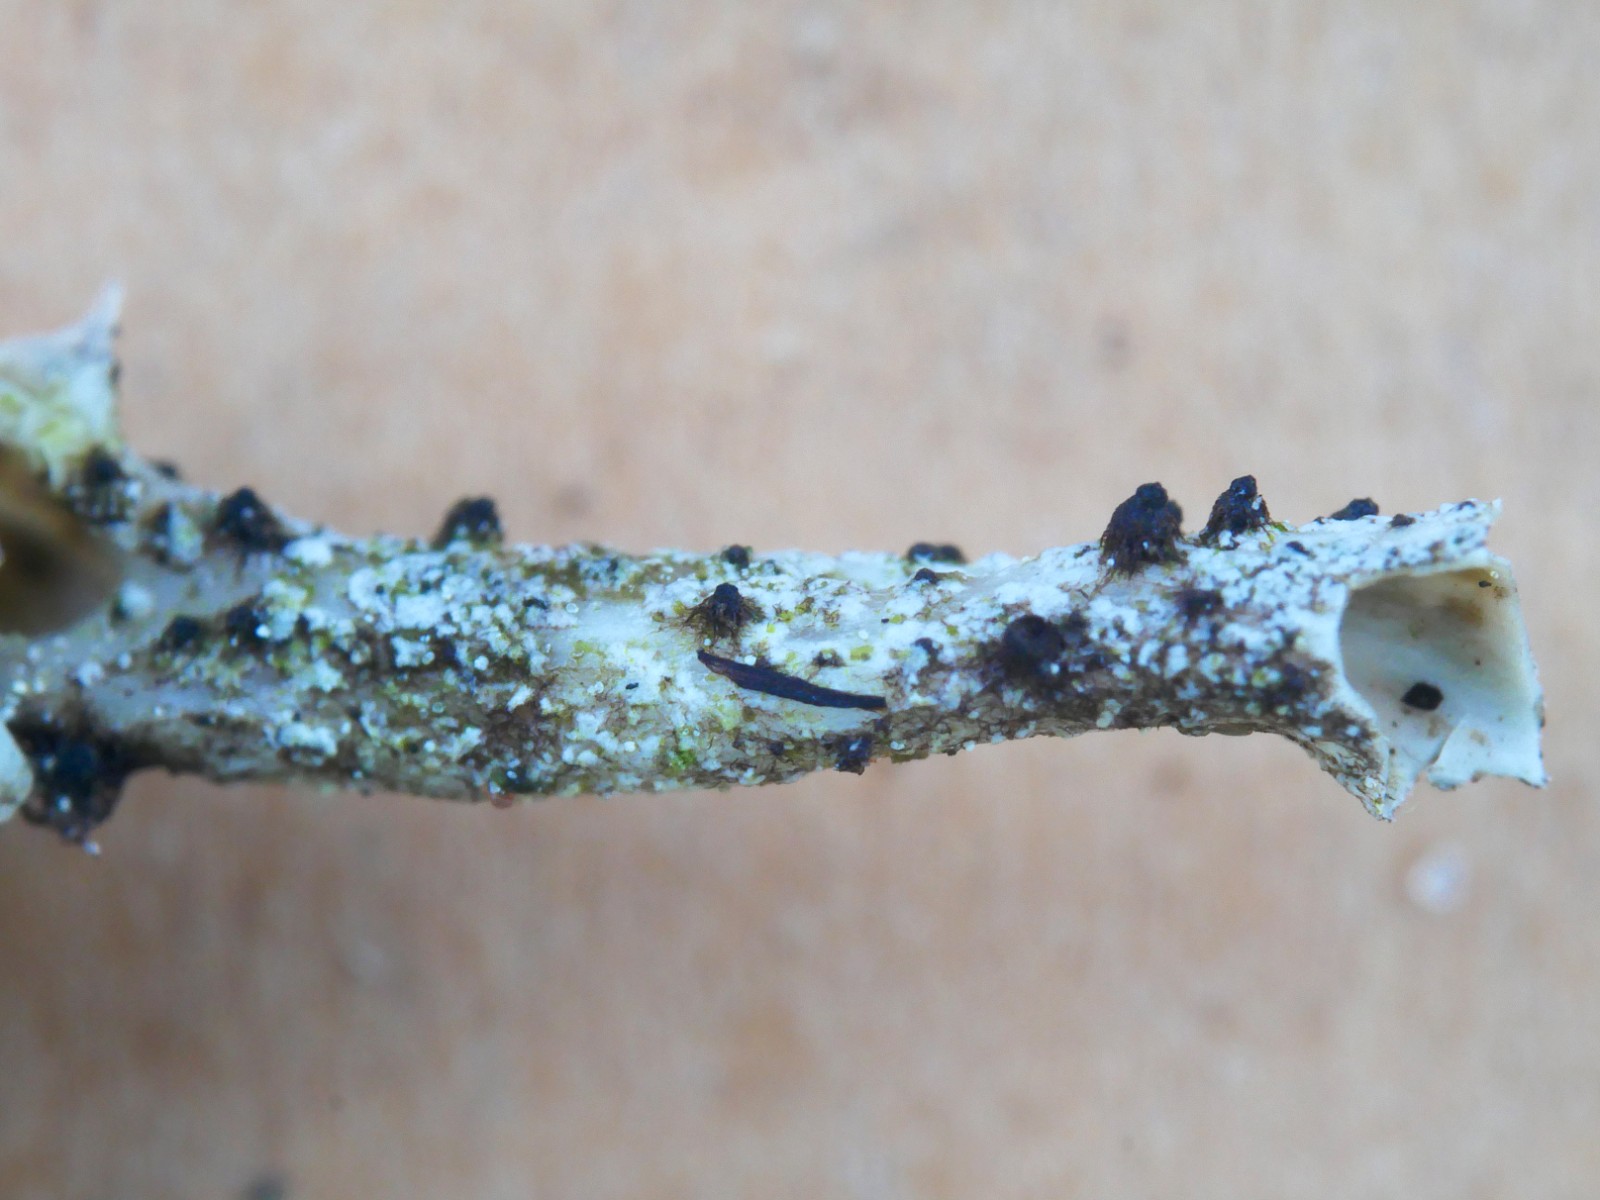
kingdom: Fungi
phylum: Ascomycota
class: Sordariomycetes
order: Sordariales
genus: Roselliniella
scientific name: Roselliniella cladoniae
